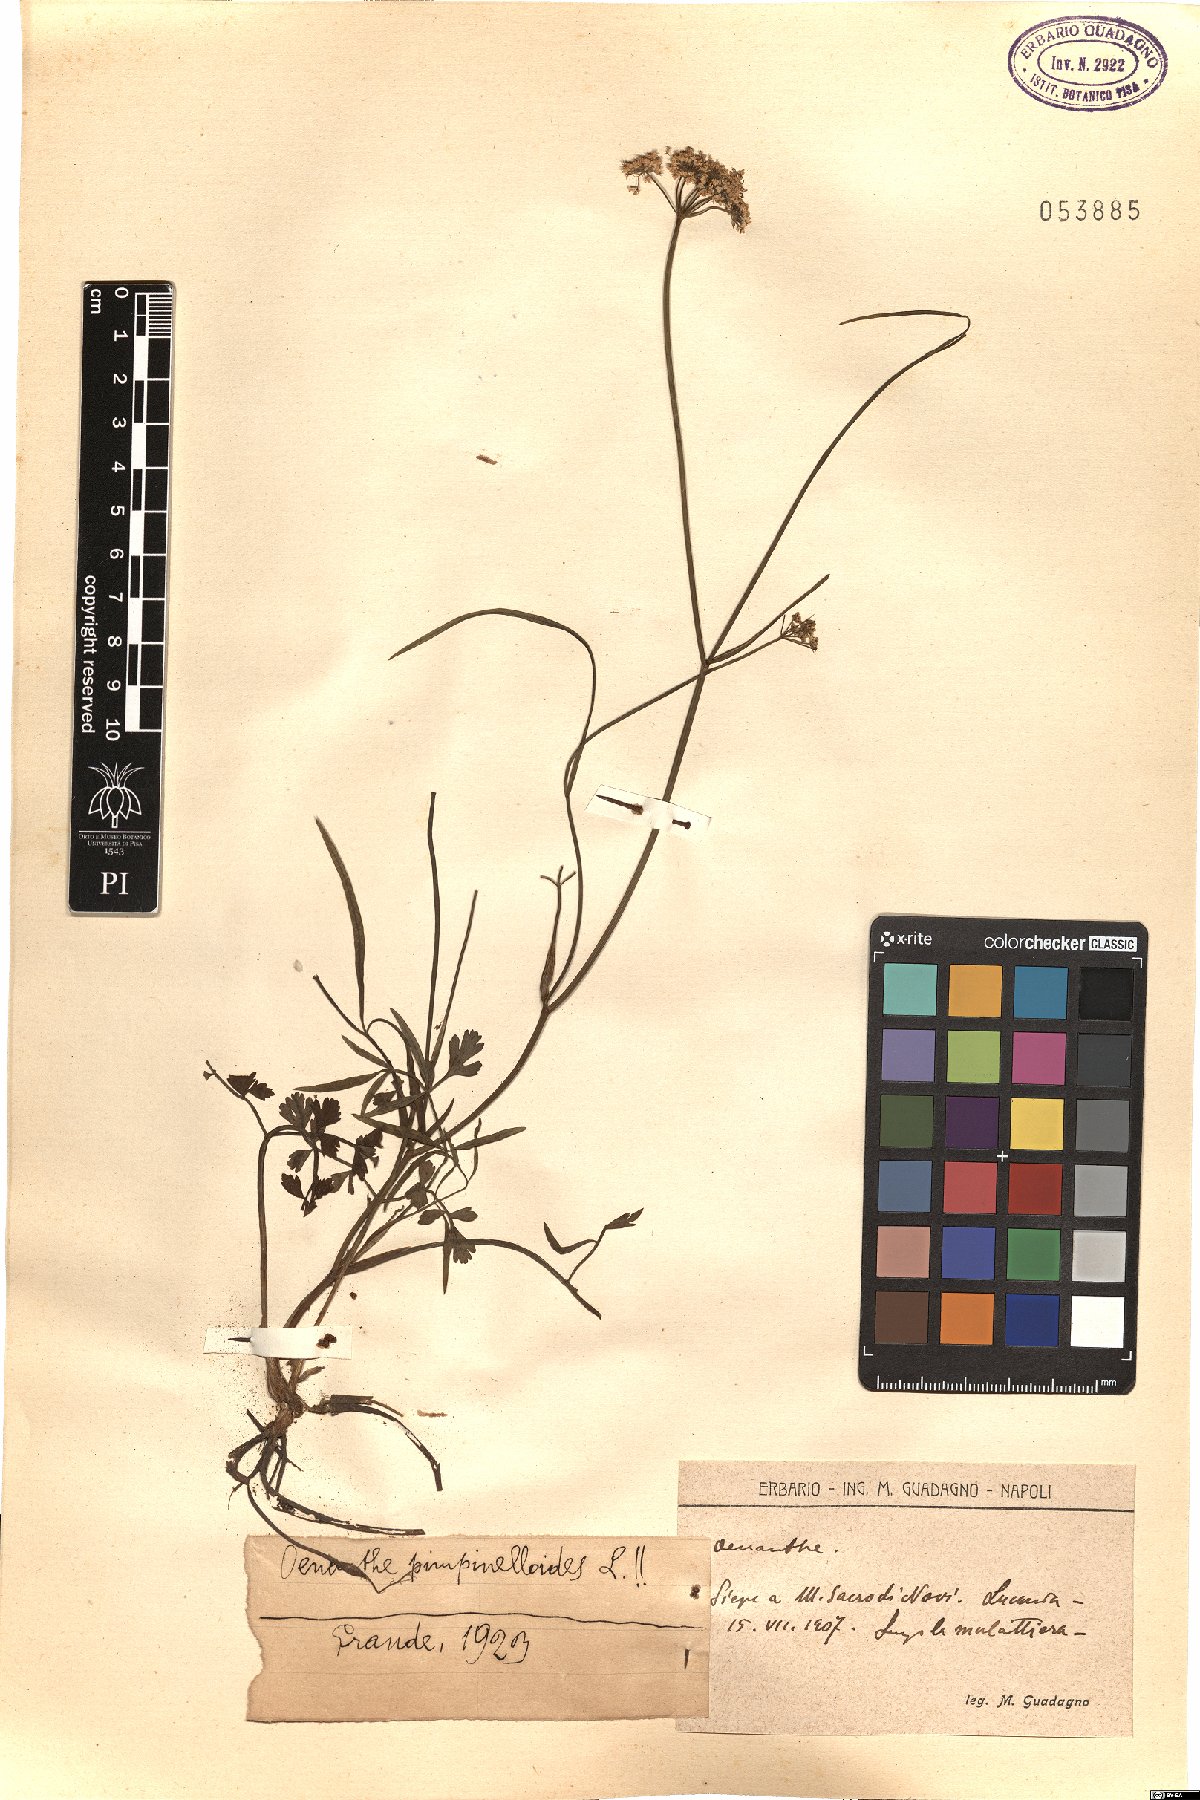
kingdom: Plantae
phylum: Tracheophyta
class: Magnoliopsida
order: Apiales
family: Apiaceae
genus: Oenanthe
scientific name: Oenanthe pimpinelloides
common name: Corky-fruited water-dropwort
